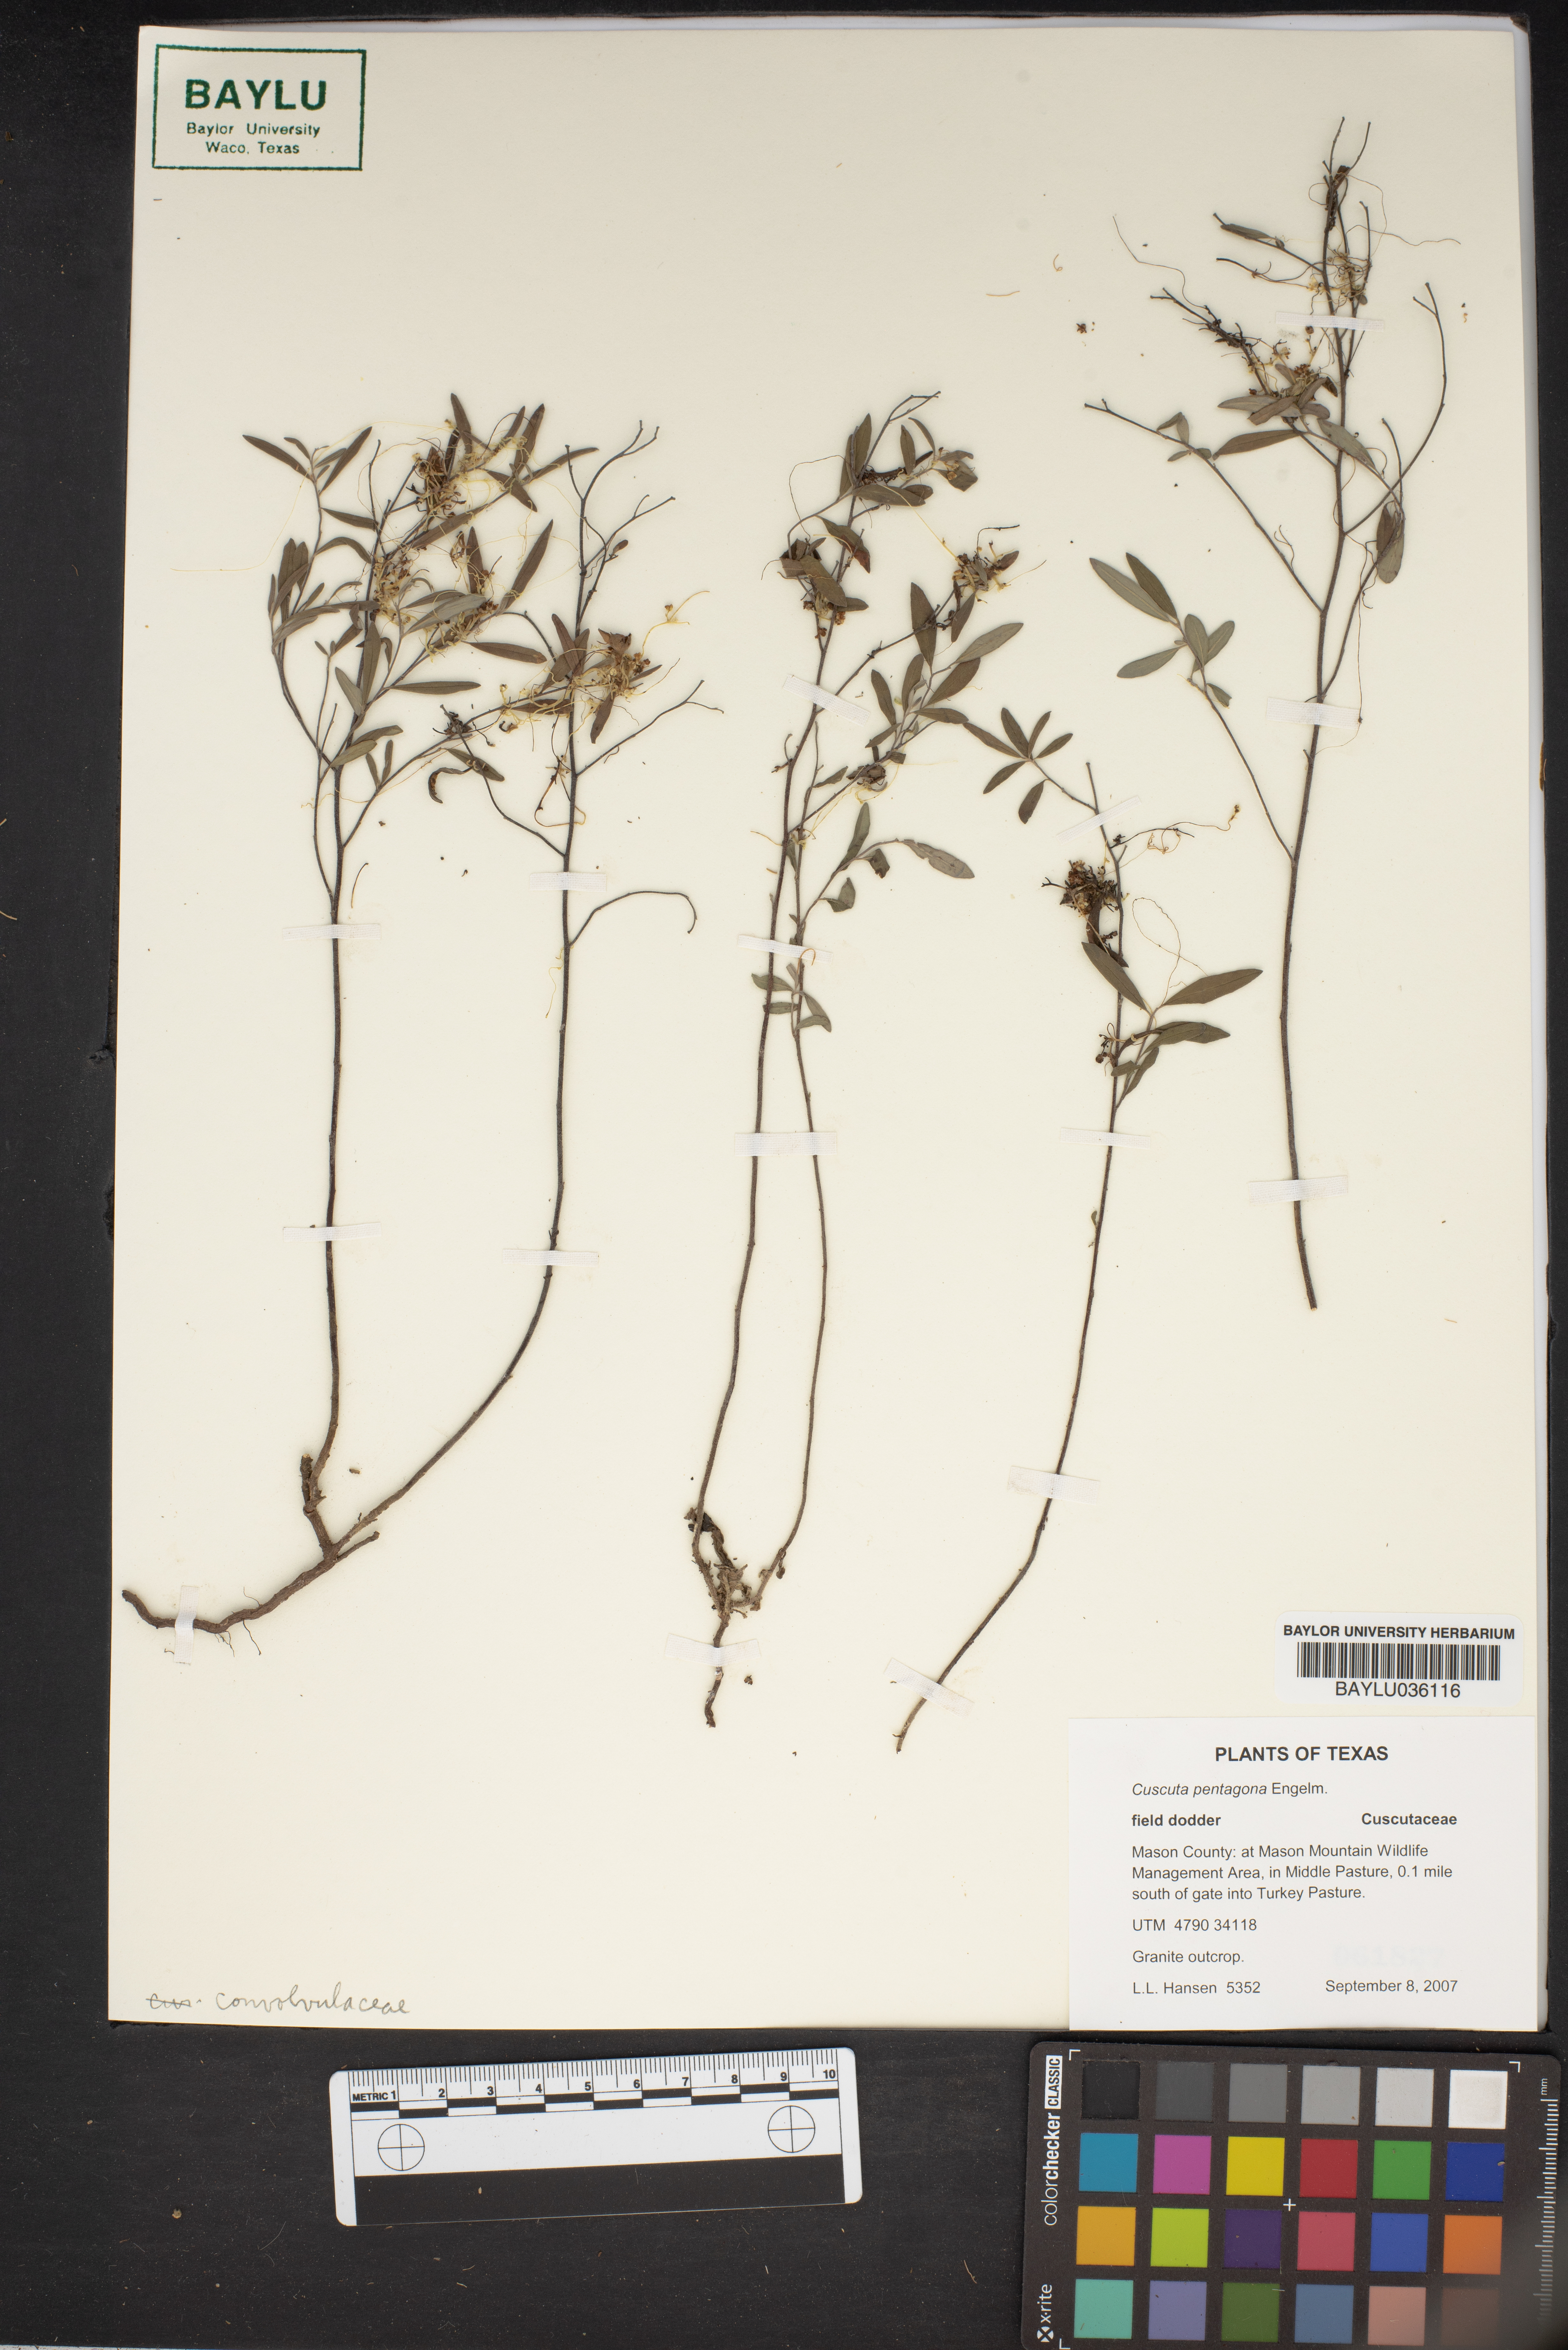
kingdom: Plantae
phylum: Tracheophyta
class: Magnoliopsida
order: Solanales
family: Convolvulaceae
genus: Cuscuta
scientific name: Cuscuta pentagona
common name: Fiveangled dodder
